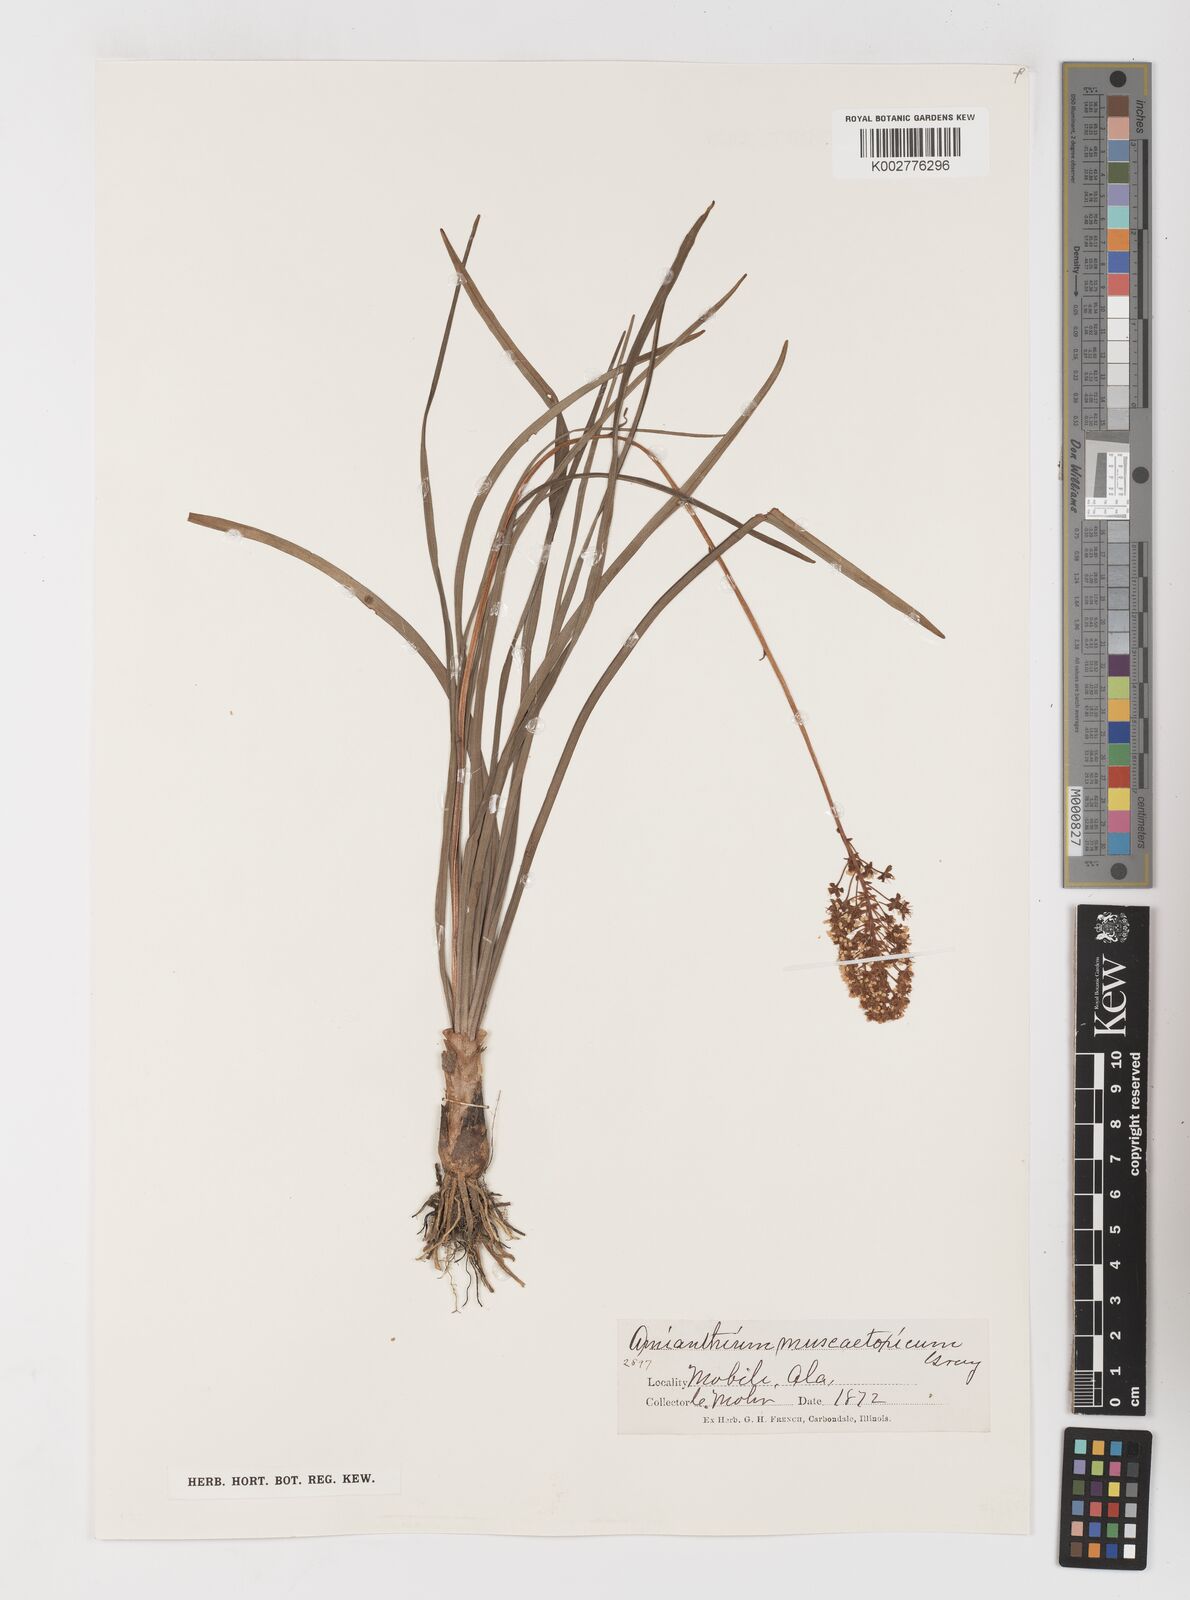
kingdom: Plantae
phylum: Tracheophyta
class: Liliopsida
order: Liliales
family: Melanthiaceae
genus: Amianthium
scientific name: Amianthium muscitoxicum
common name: Fly-poison
